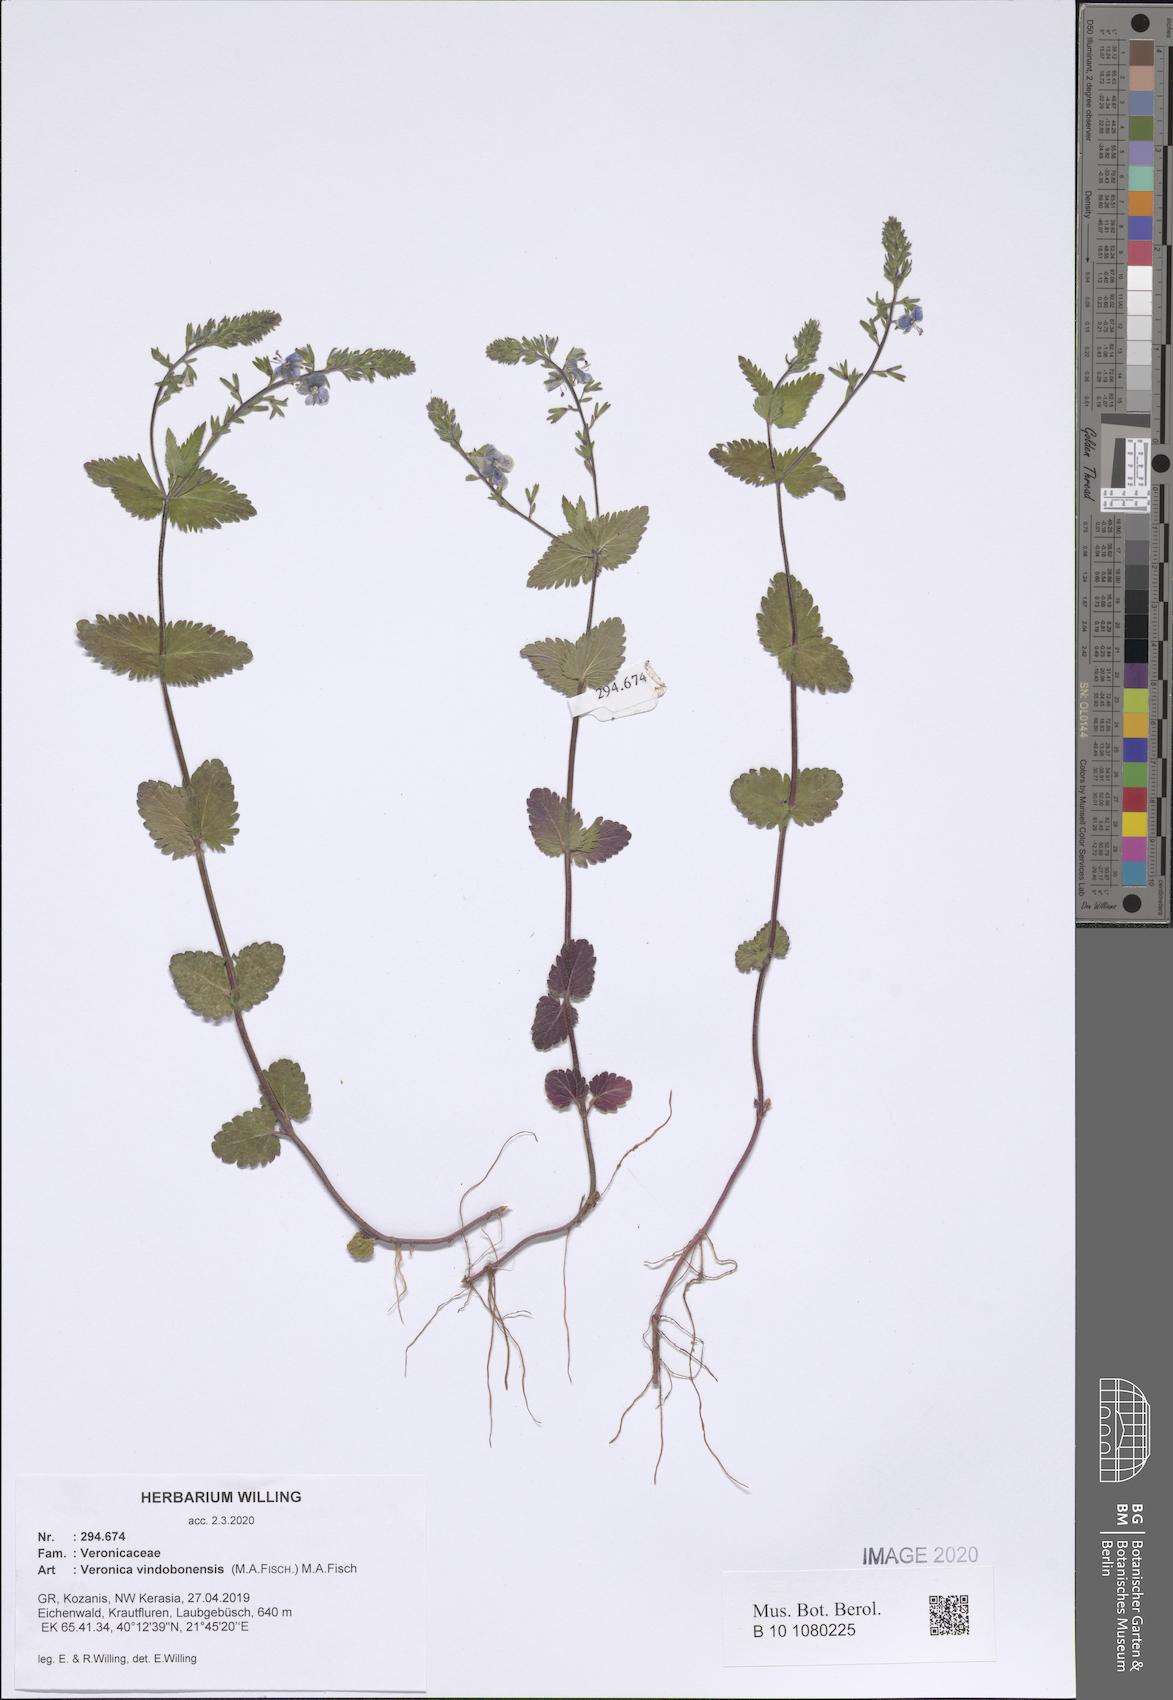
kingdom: Plantae
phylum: Tracheophyta
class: Magnoliopsida
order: Lamiales
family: Plantaginaceae
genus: Veronica
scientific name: Veronica vindobonensis
